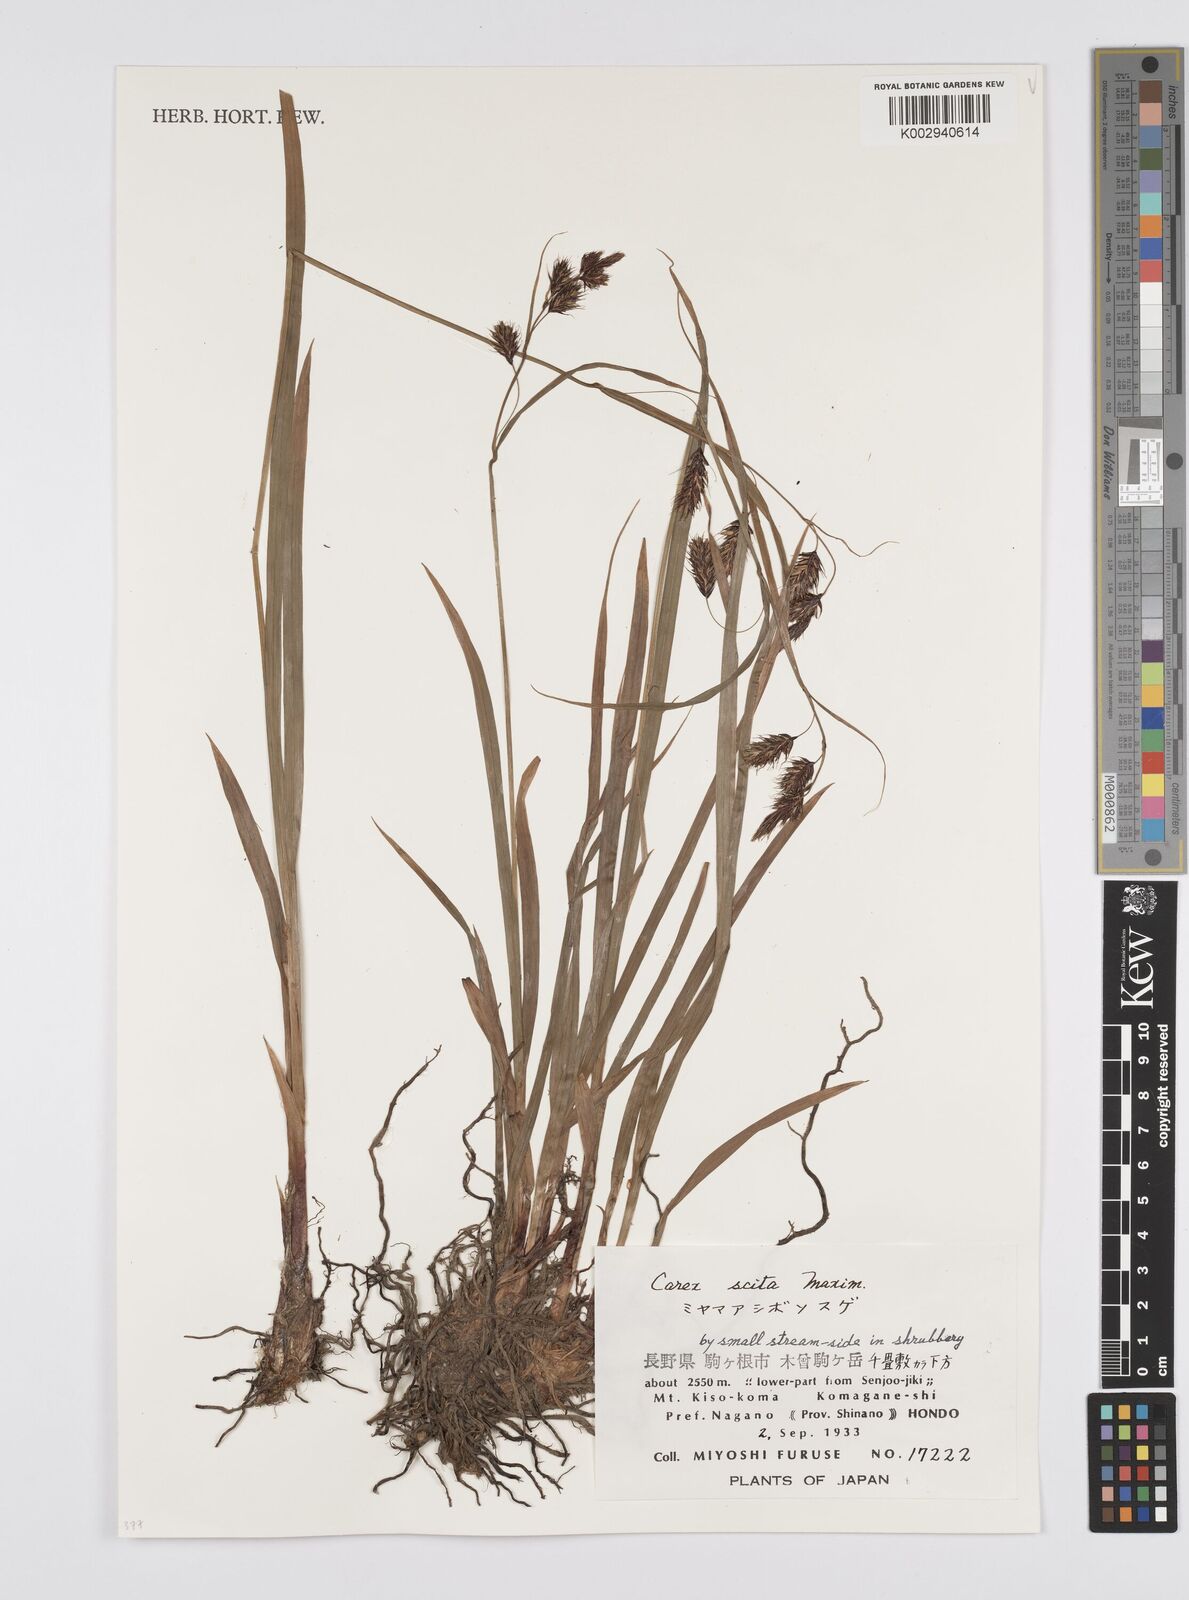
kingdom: Plantae
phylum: Tracheophyta
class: Liliopsida
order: Poales
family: Cyperaceae
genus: Carex
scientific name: Carex scita
